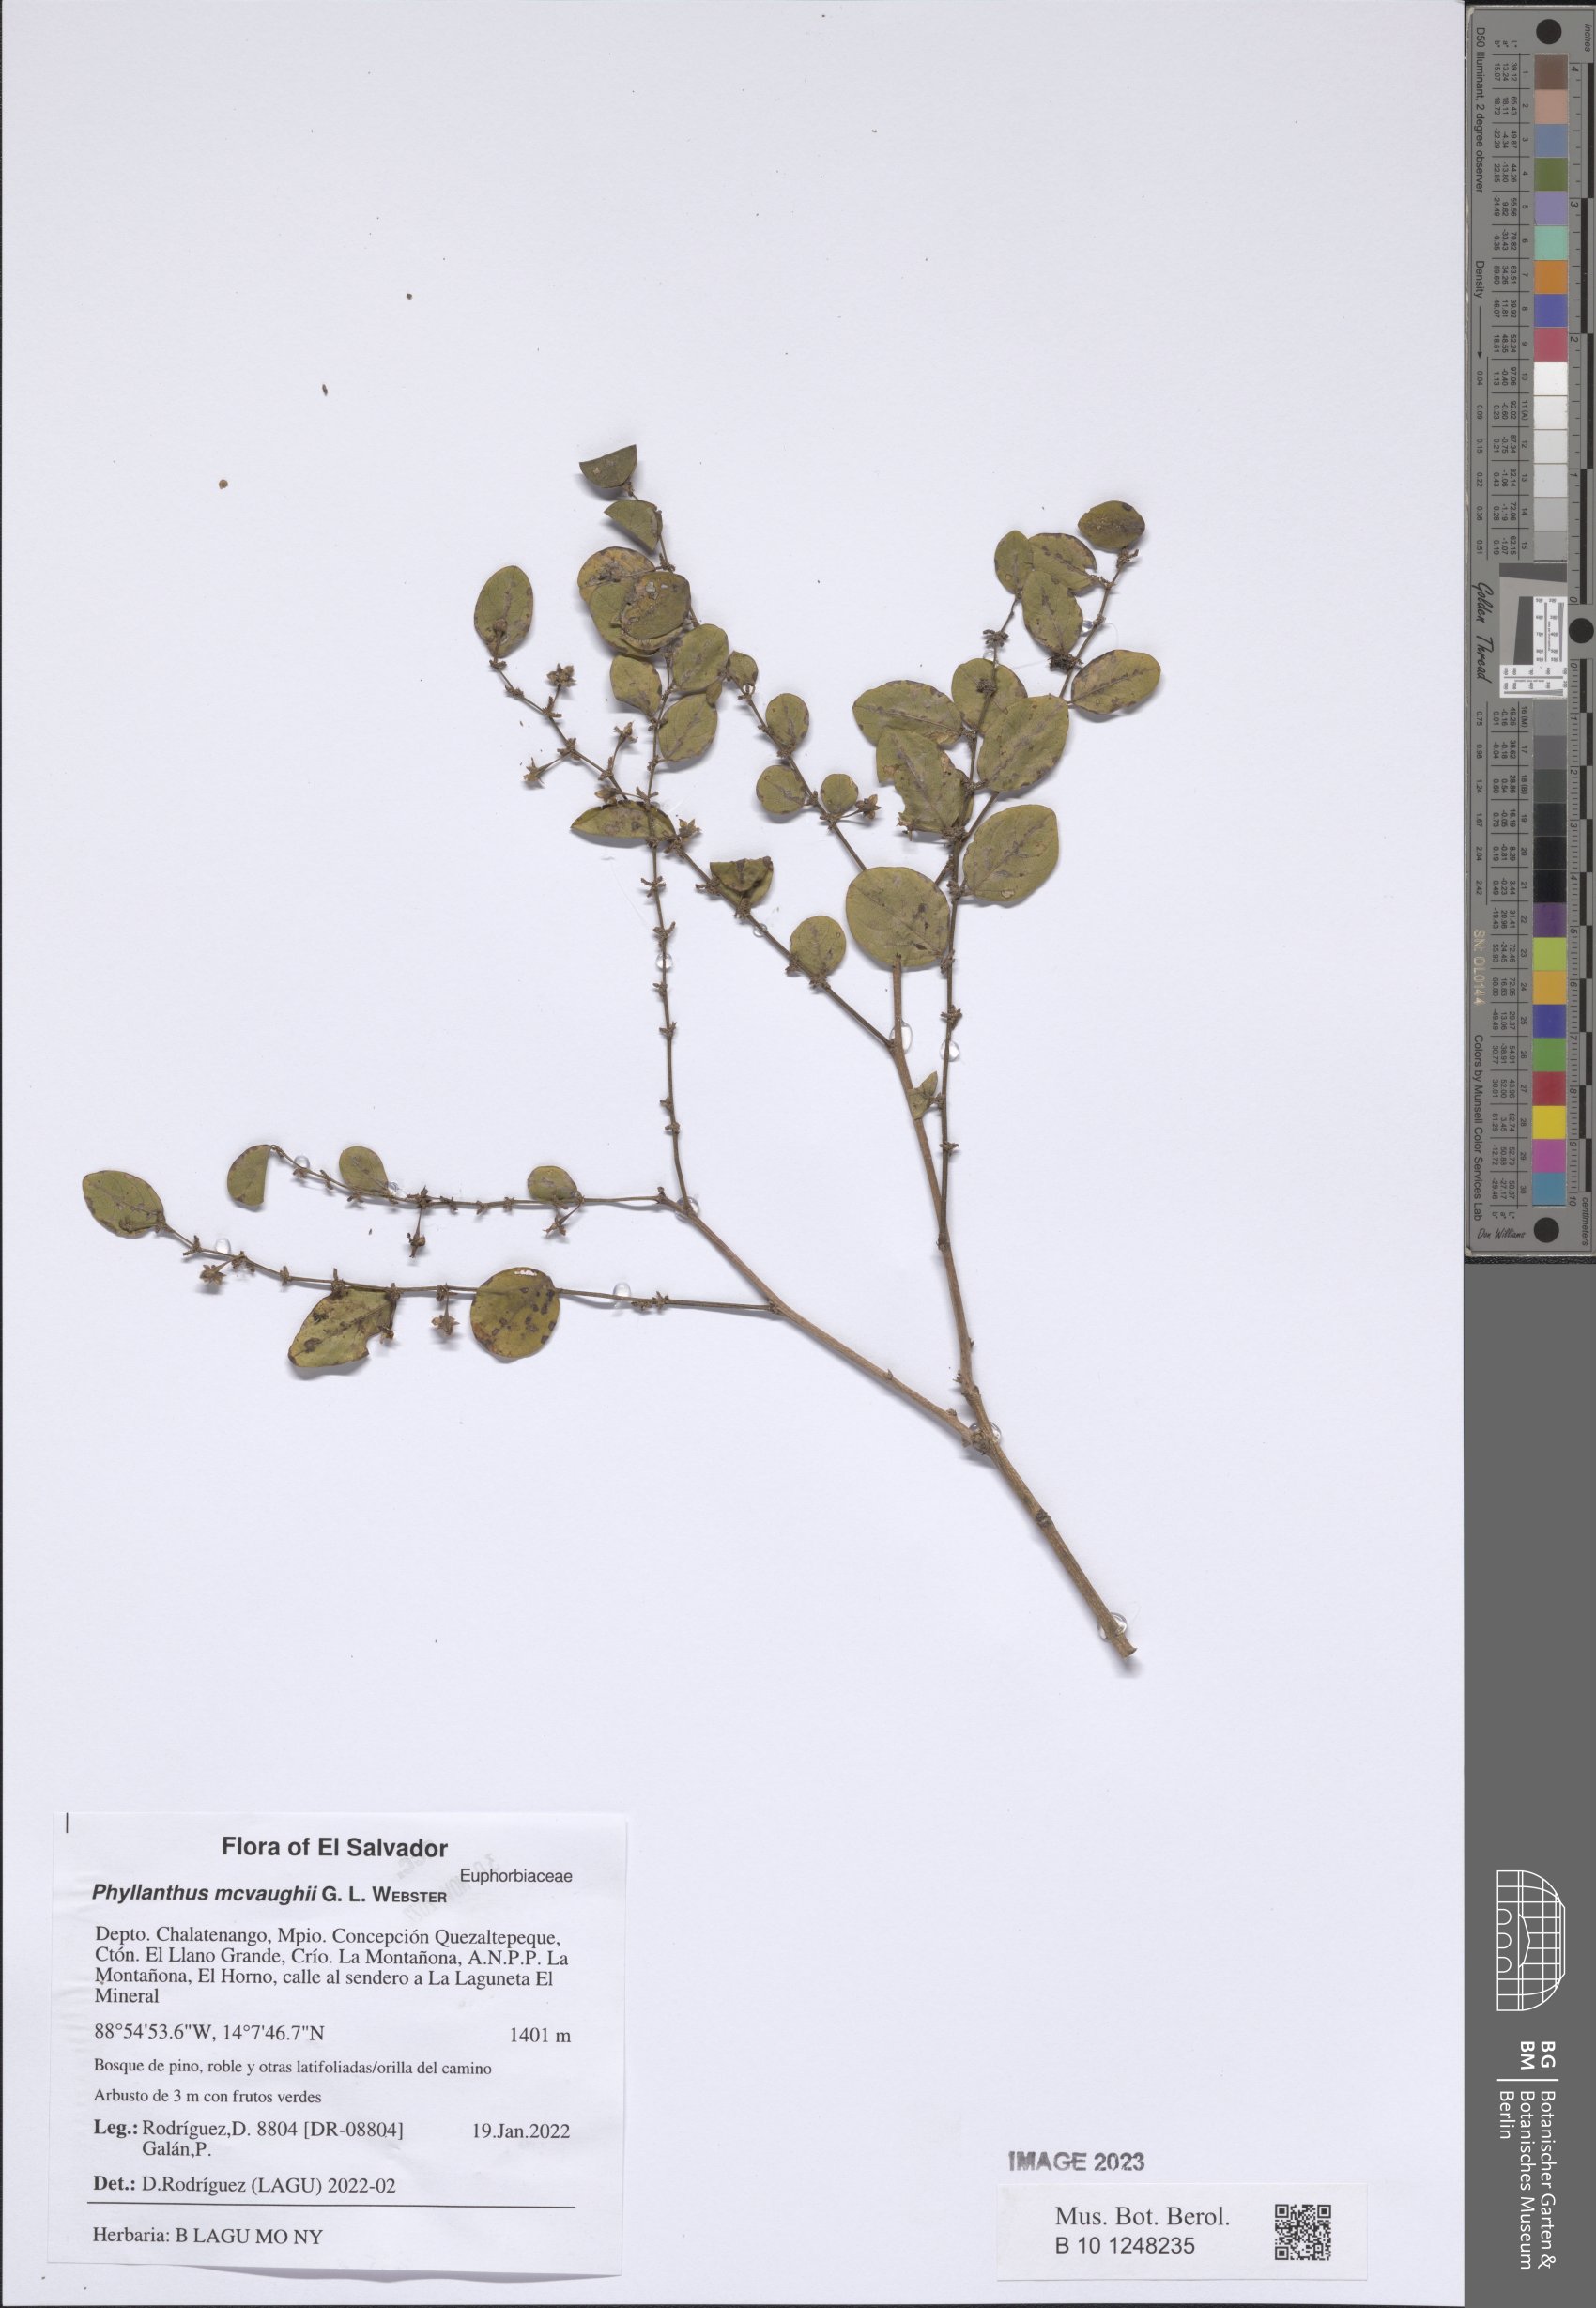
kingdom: Plantae
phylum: Tracheophyta
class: Magnoliopsida
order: Malpighiales
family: Phyllanthaceae
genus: Phyllanthus
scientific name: Phyllanthus mcvaughii
